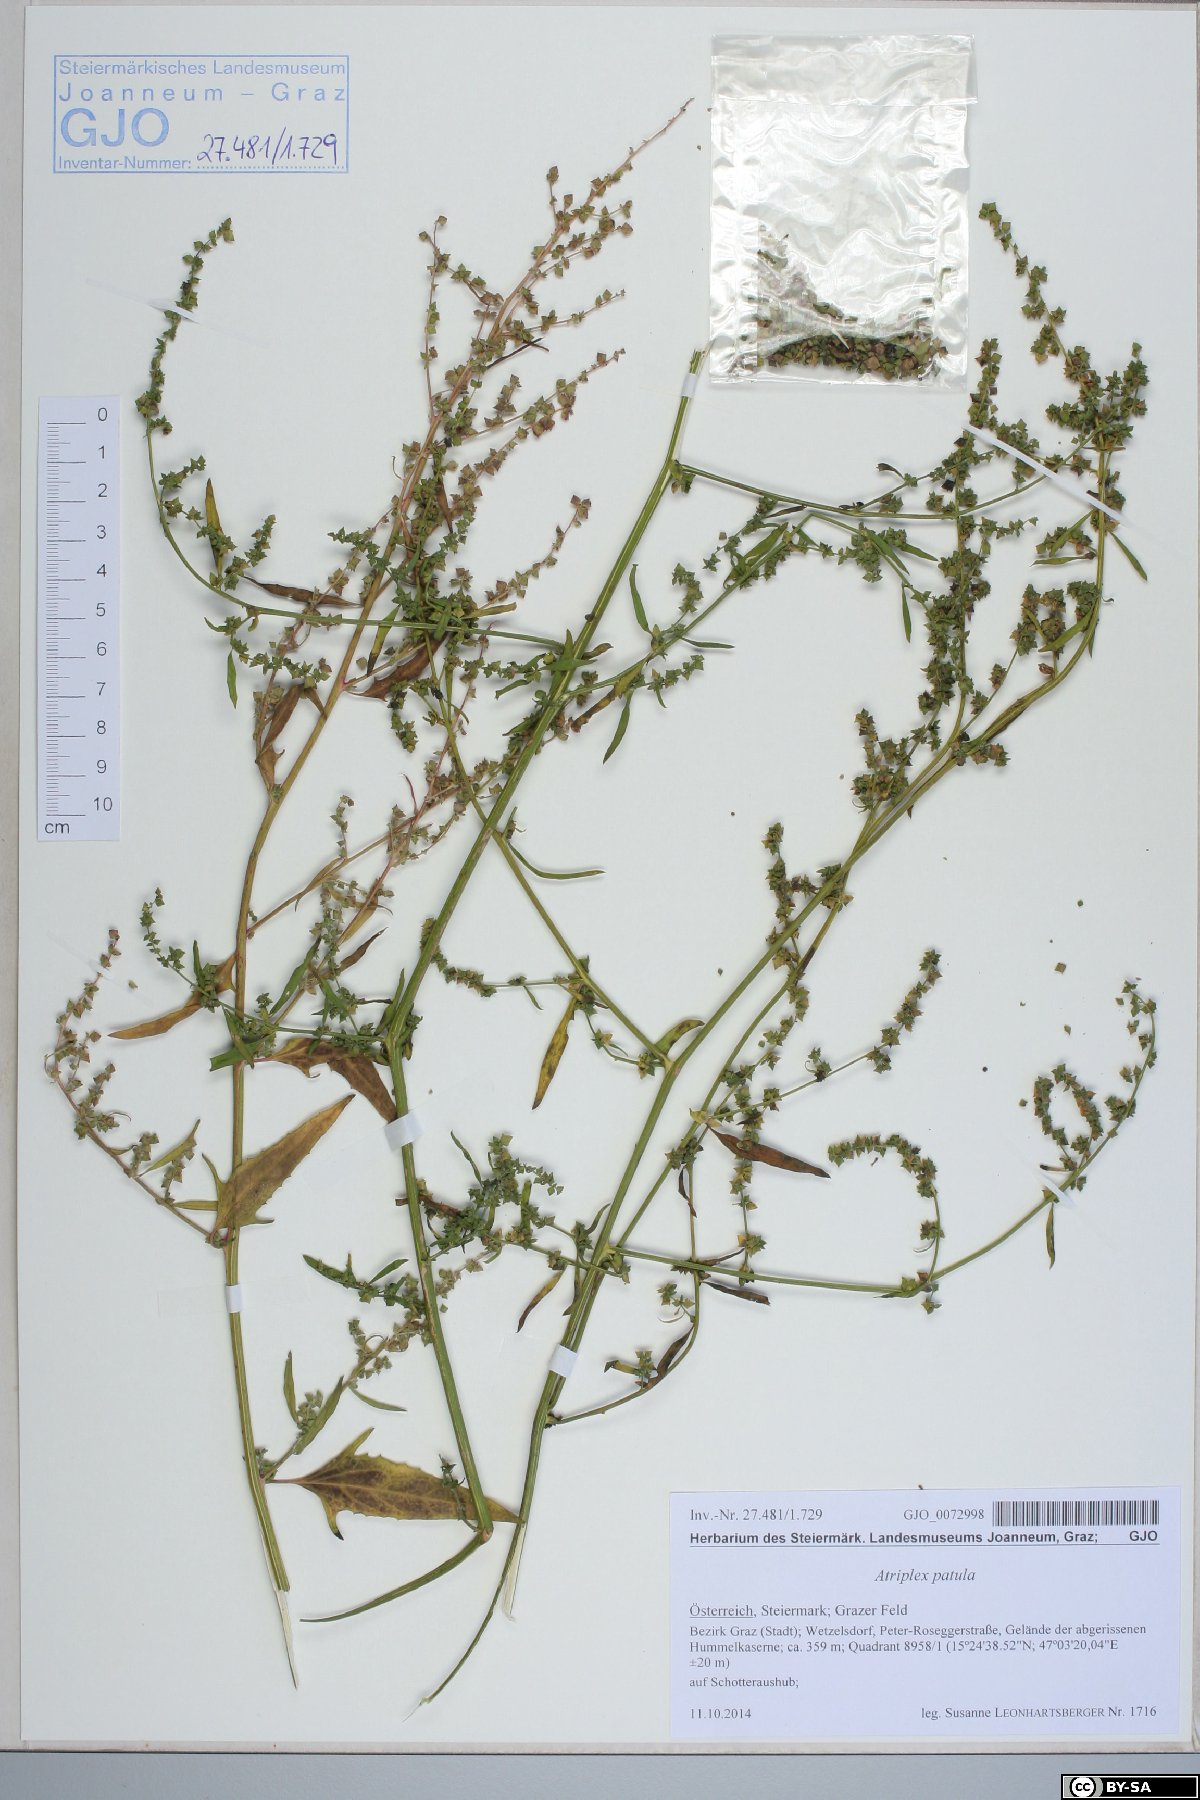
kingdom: Plantae
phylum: Tracheophyta
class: Magnoliopsida
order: Caryophyllales
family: Amaranthaceae
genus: Atriplex
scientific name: Atriplex patula
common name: Common orache
